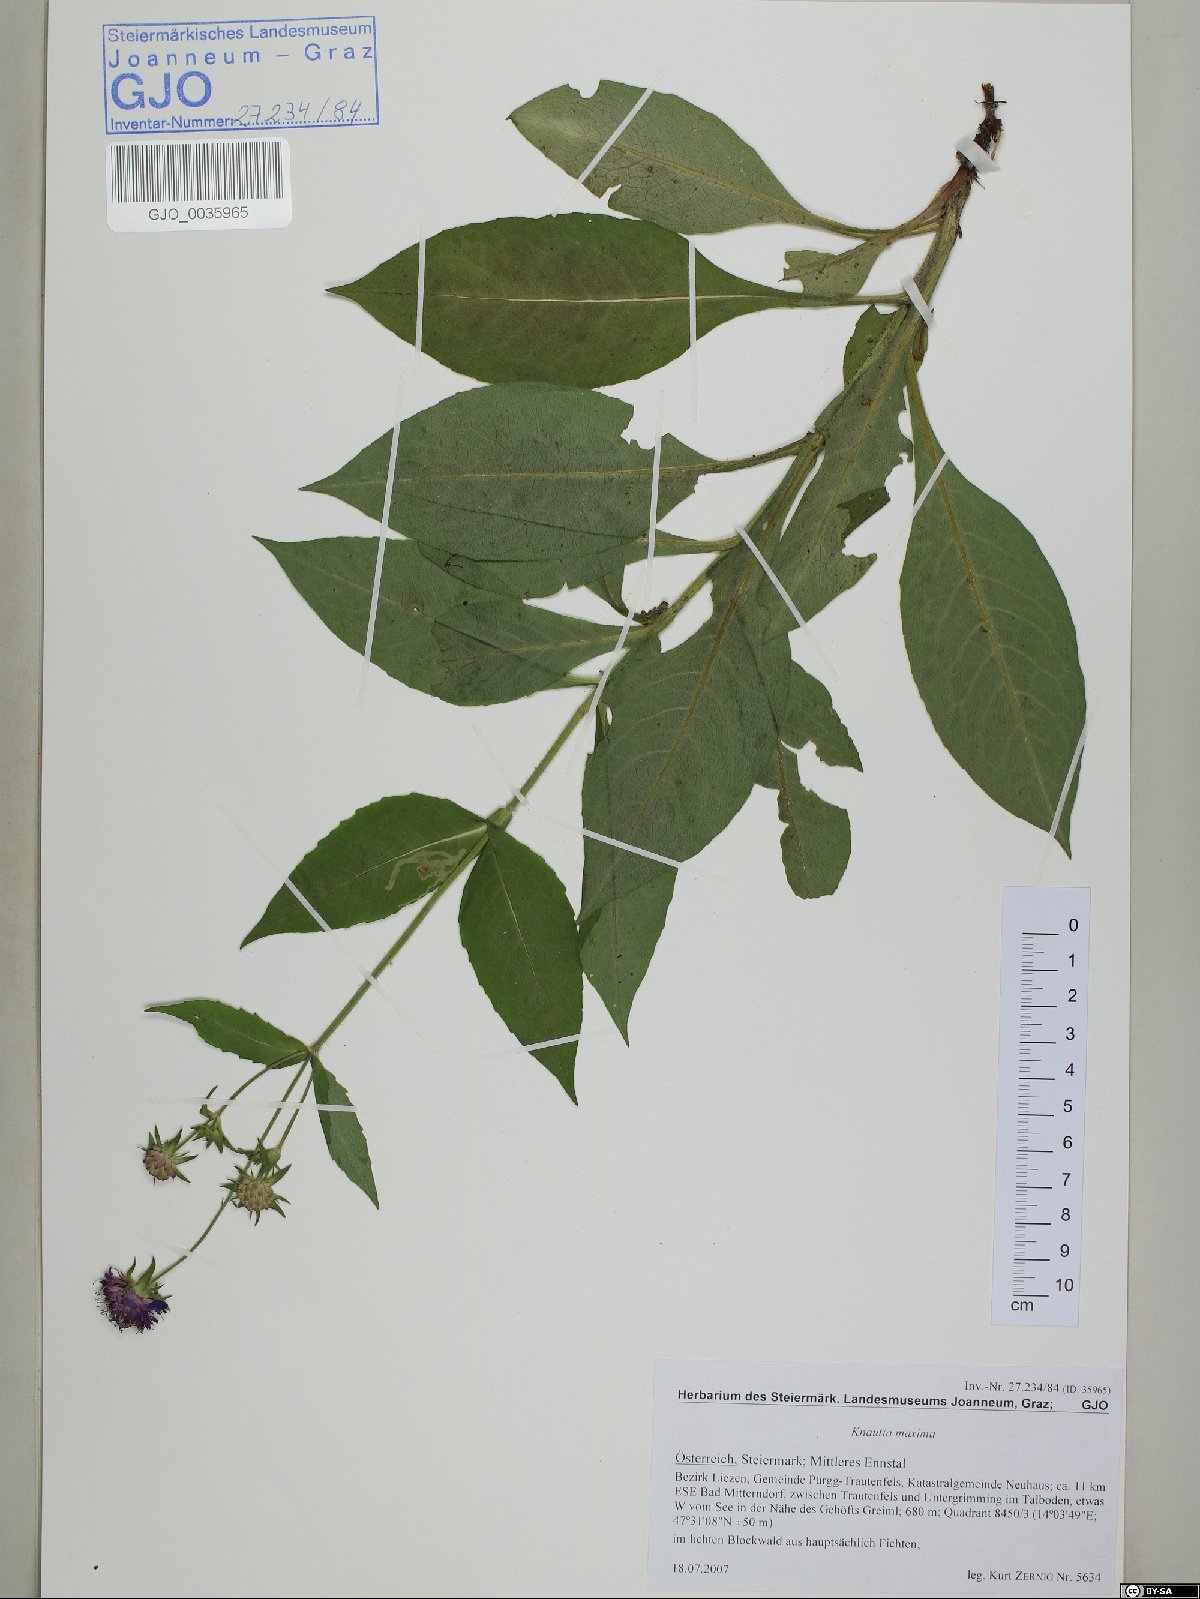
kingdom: Plantae
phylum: Tracheophyta
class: Magnoliopsida
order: Dipsacales
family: Caprifoliaceae
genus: Knautia
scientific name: Knautia dipsacifolia
